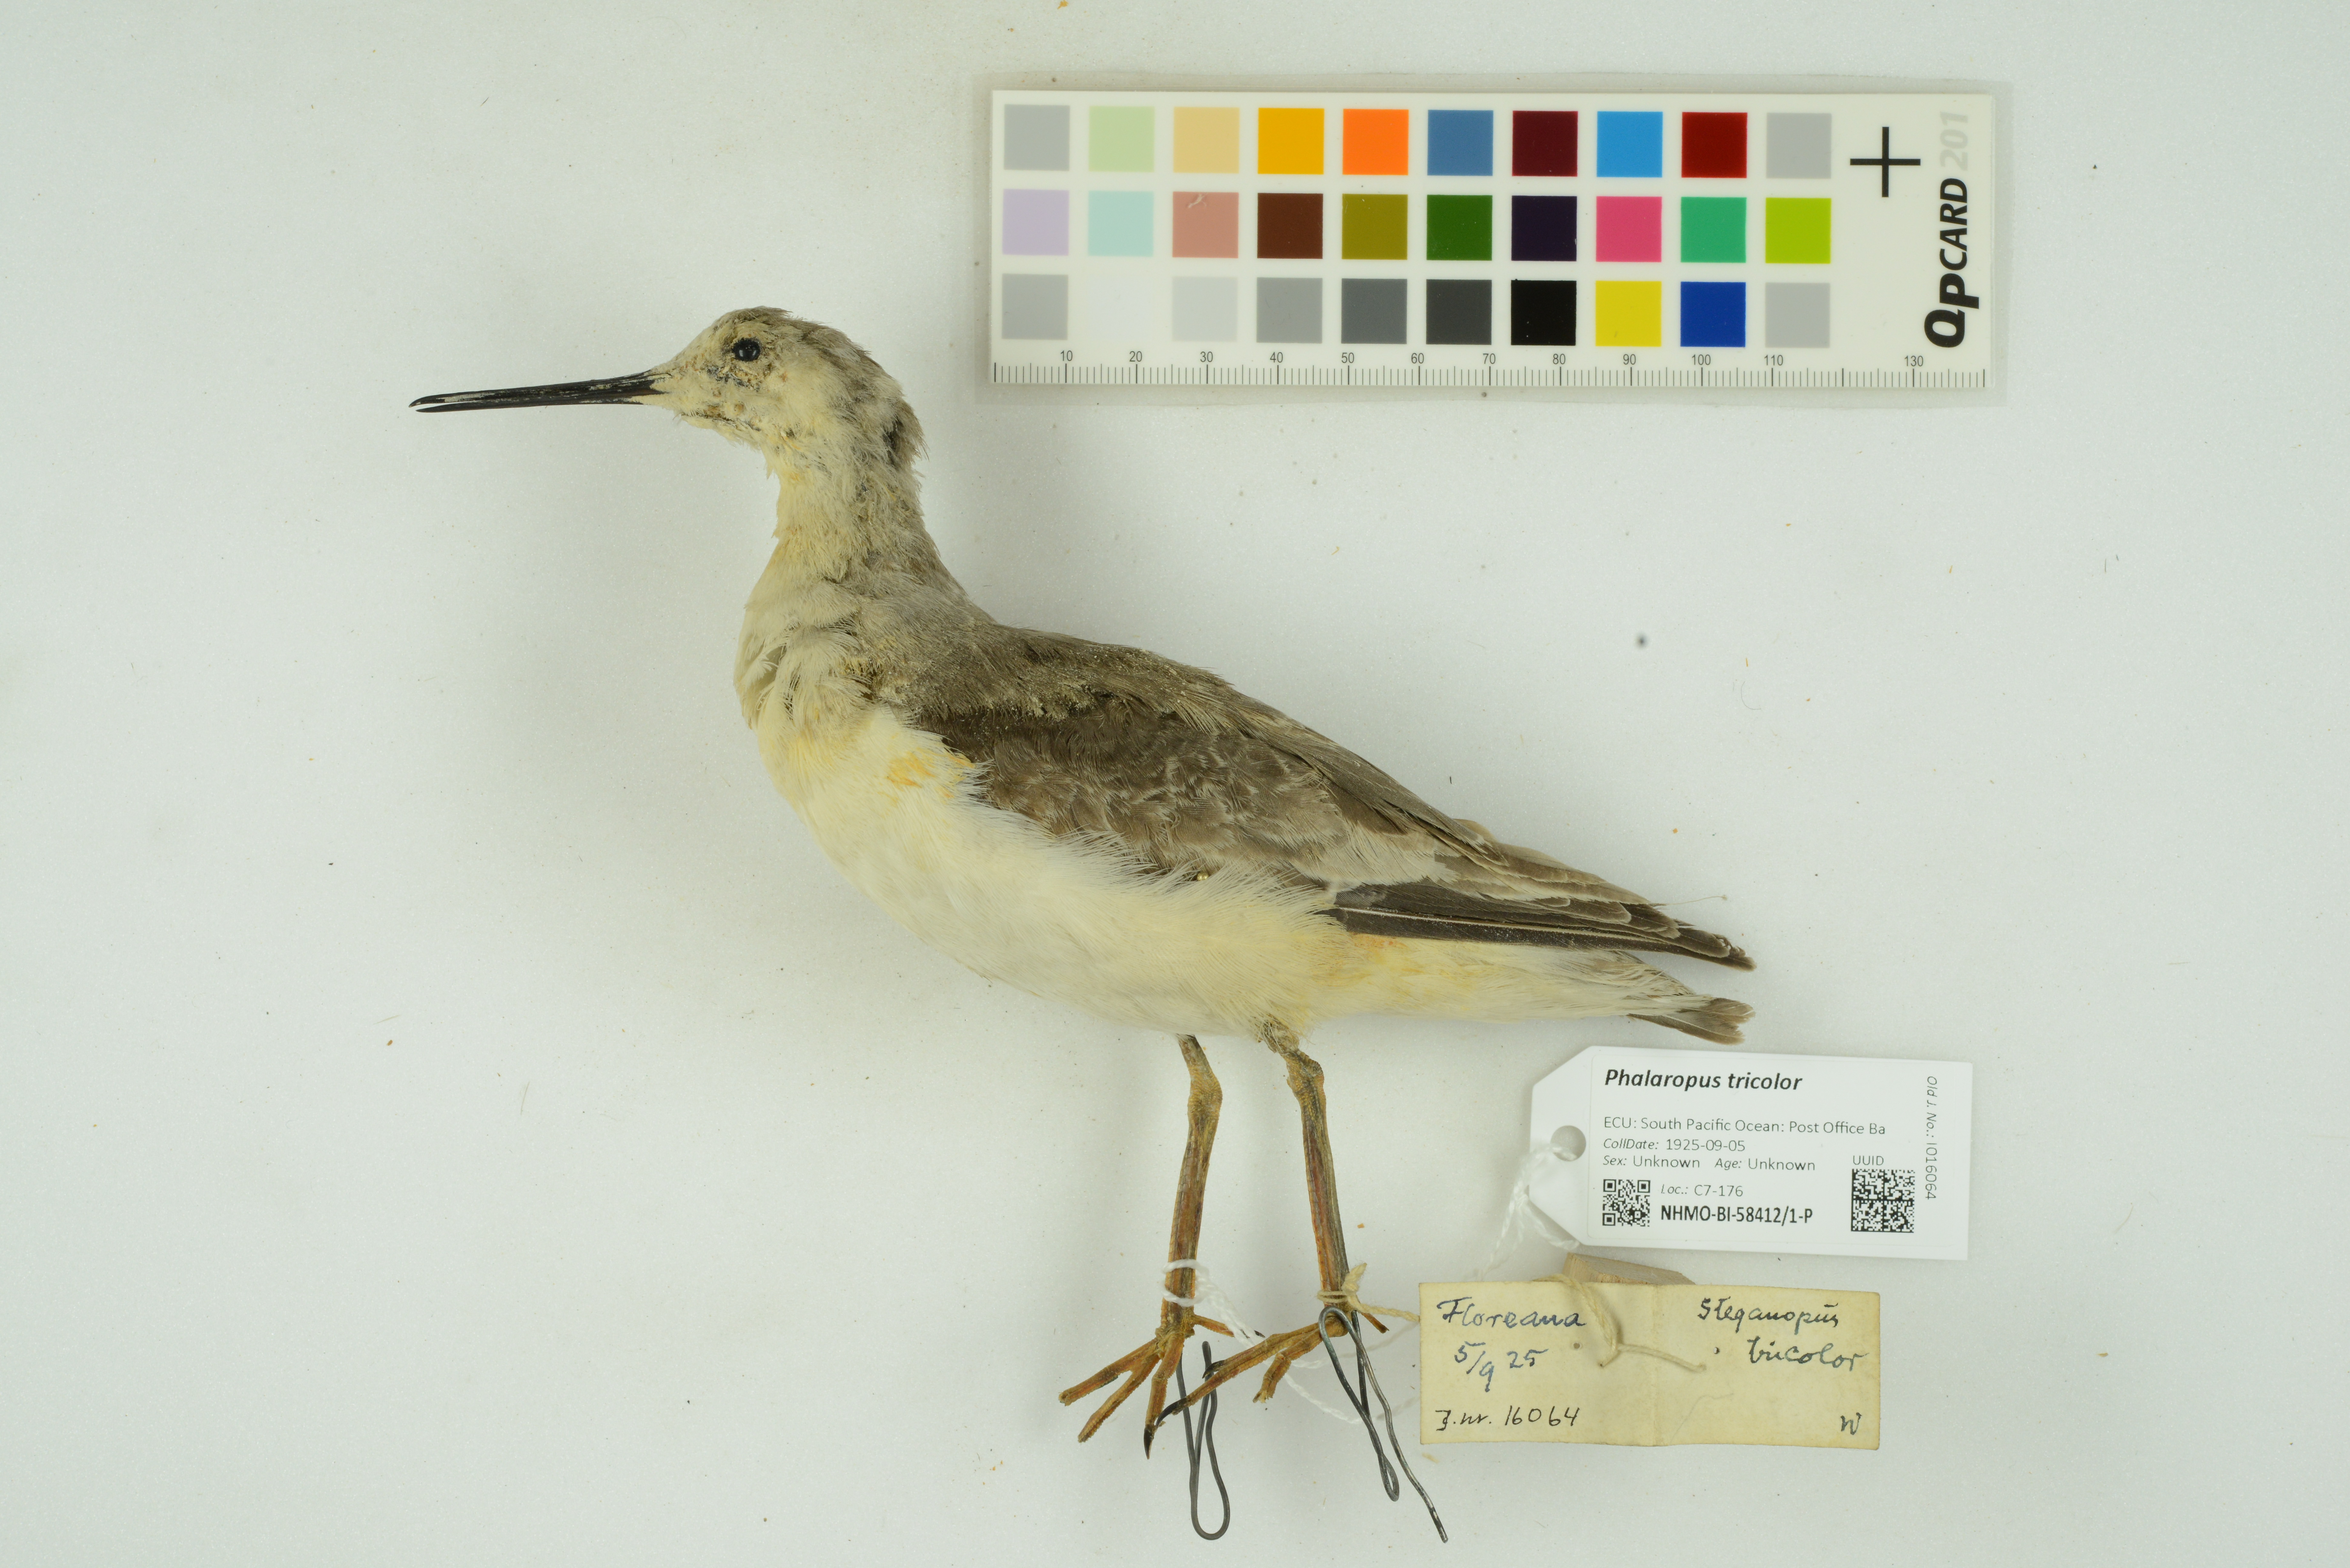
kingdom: Animalia
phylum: Chordata
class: Aves
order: Charadriiformes
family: Scolopacidae
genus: Phalaropus
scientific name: Phalaropus tricolor
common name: Wilson's phalarope
